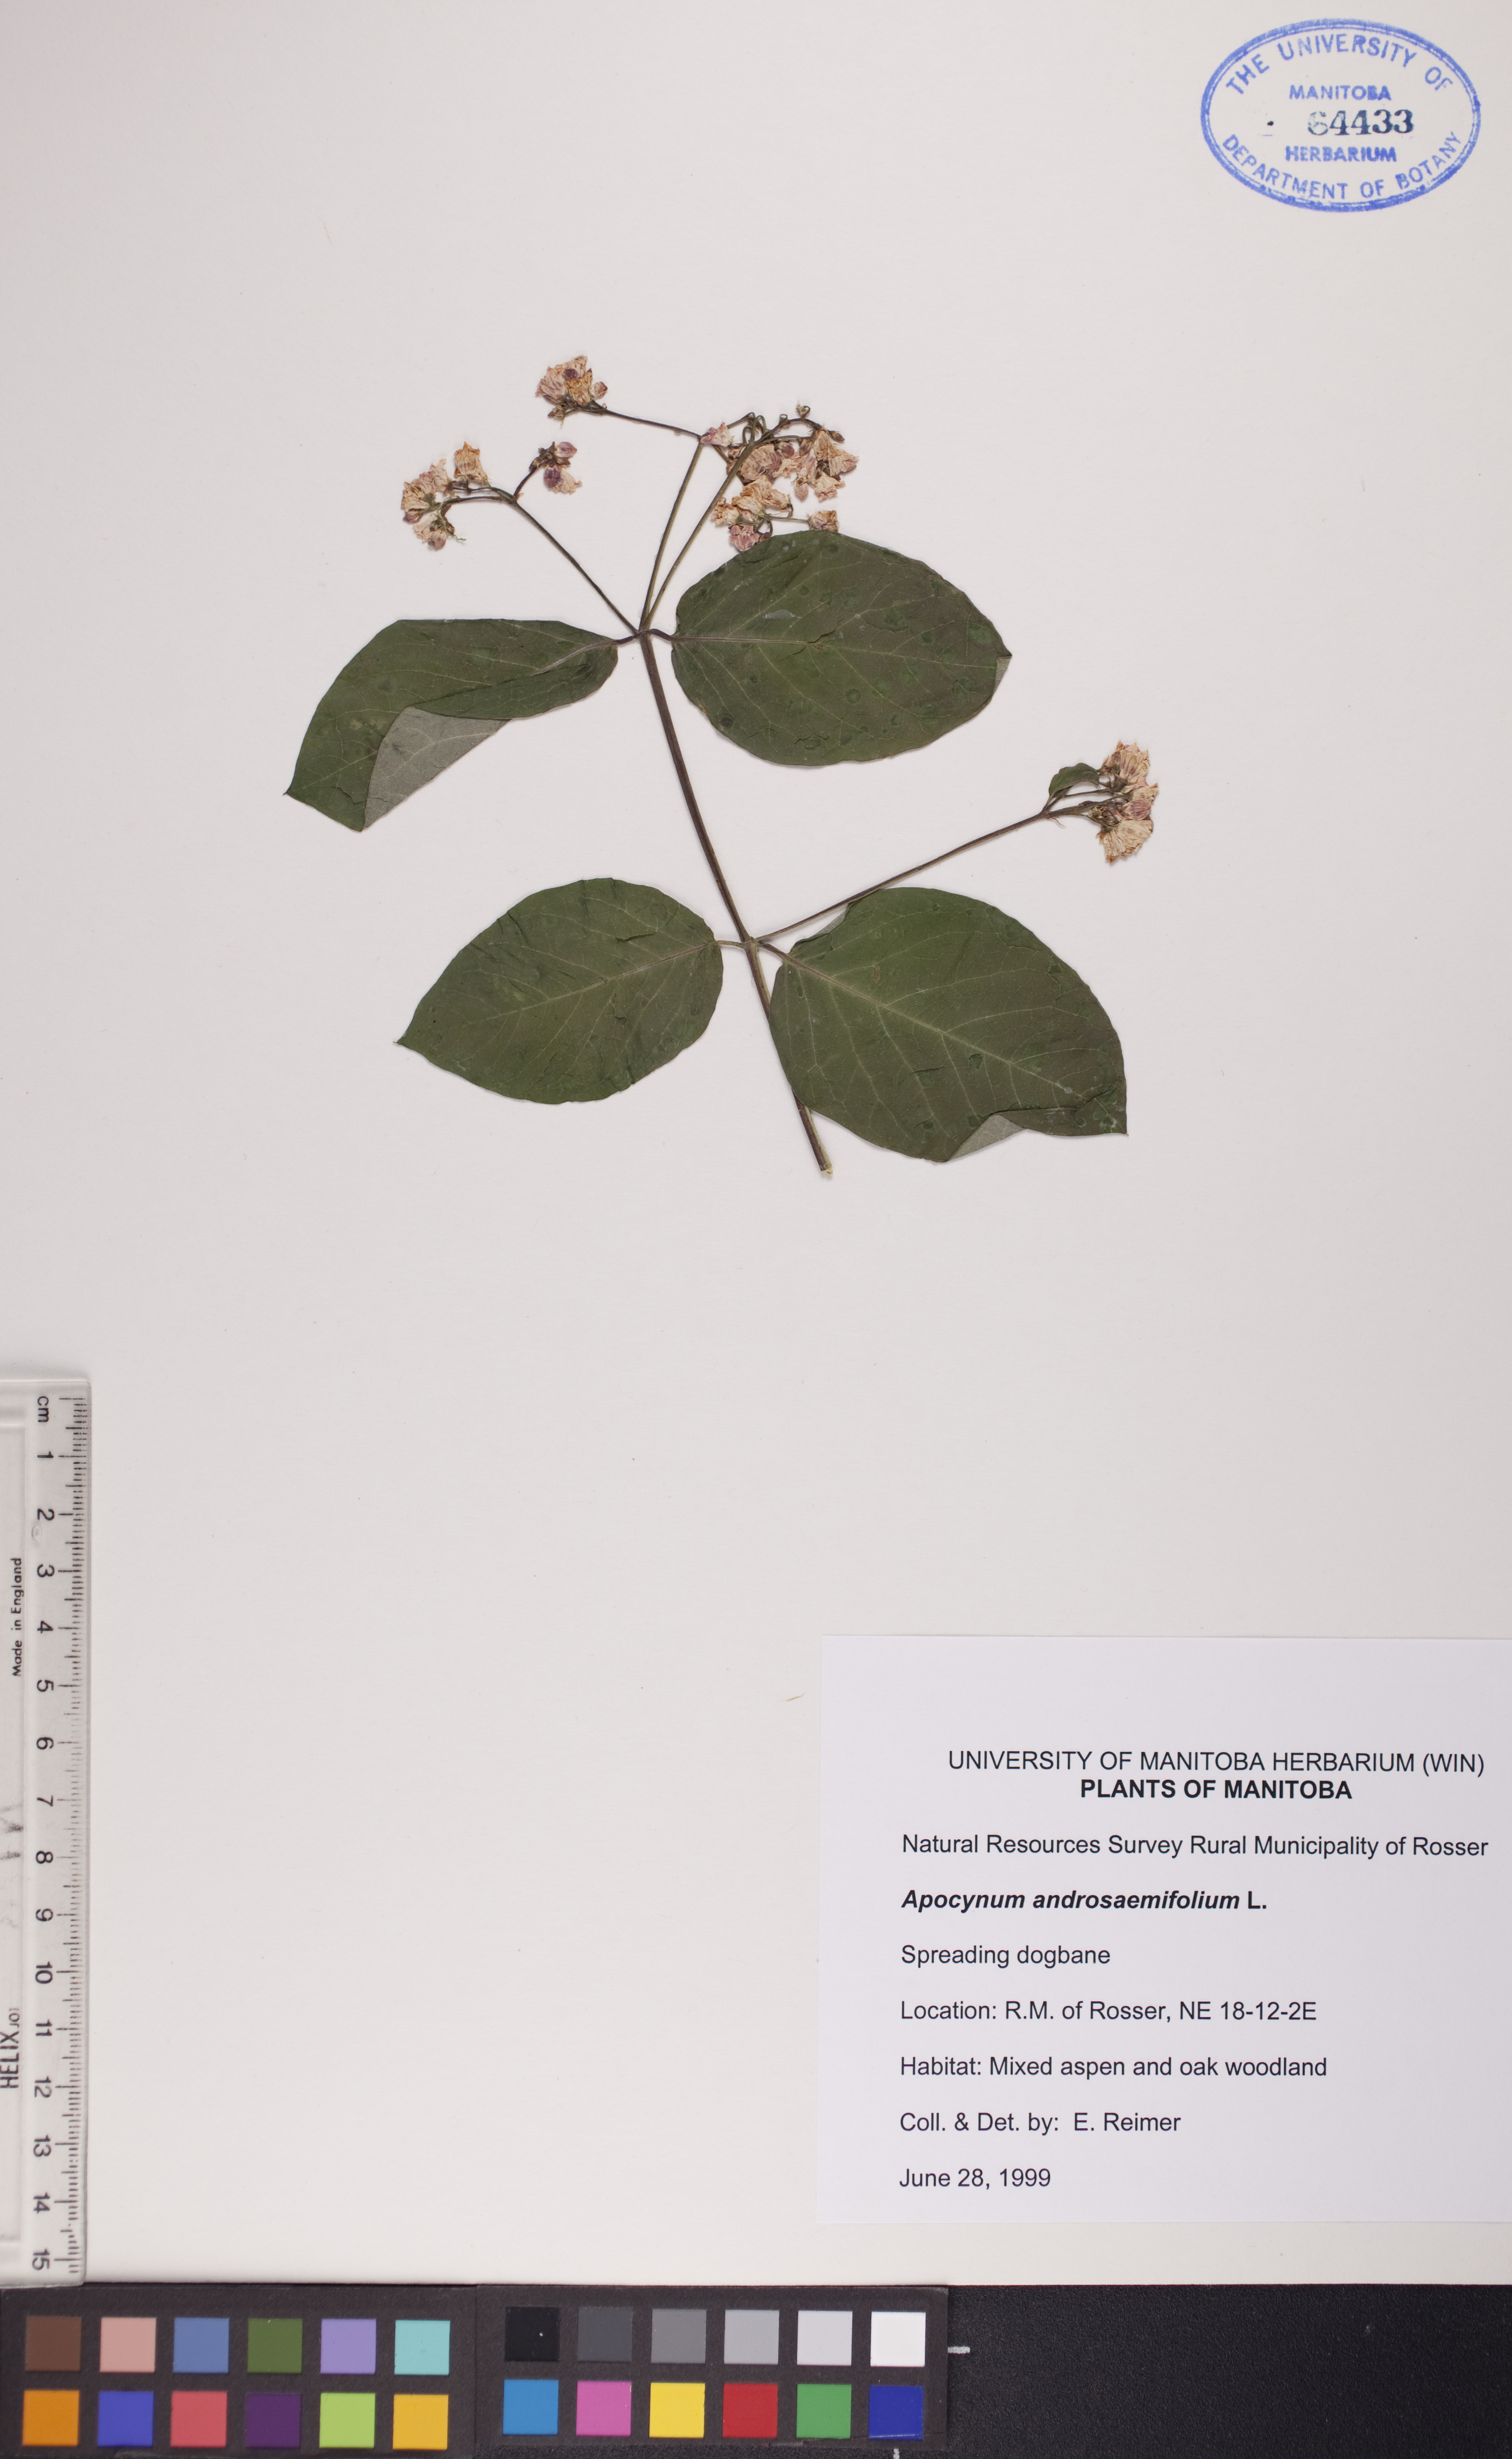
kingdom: Plantae
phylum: Tracheophyta
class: Magnoliopsida
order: Gentianales
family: Apocynaceae
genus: Apocynum
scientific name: Apocynum androsaemifolium
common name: Spreading dogbane
